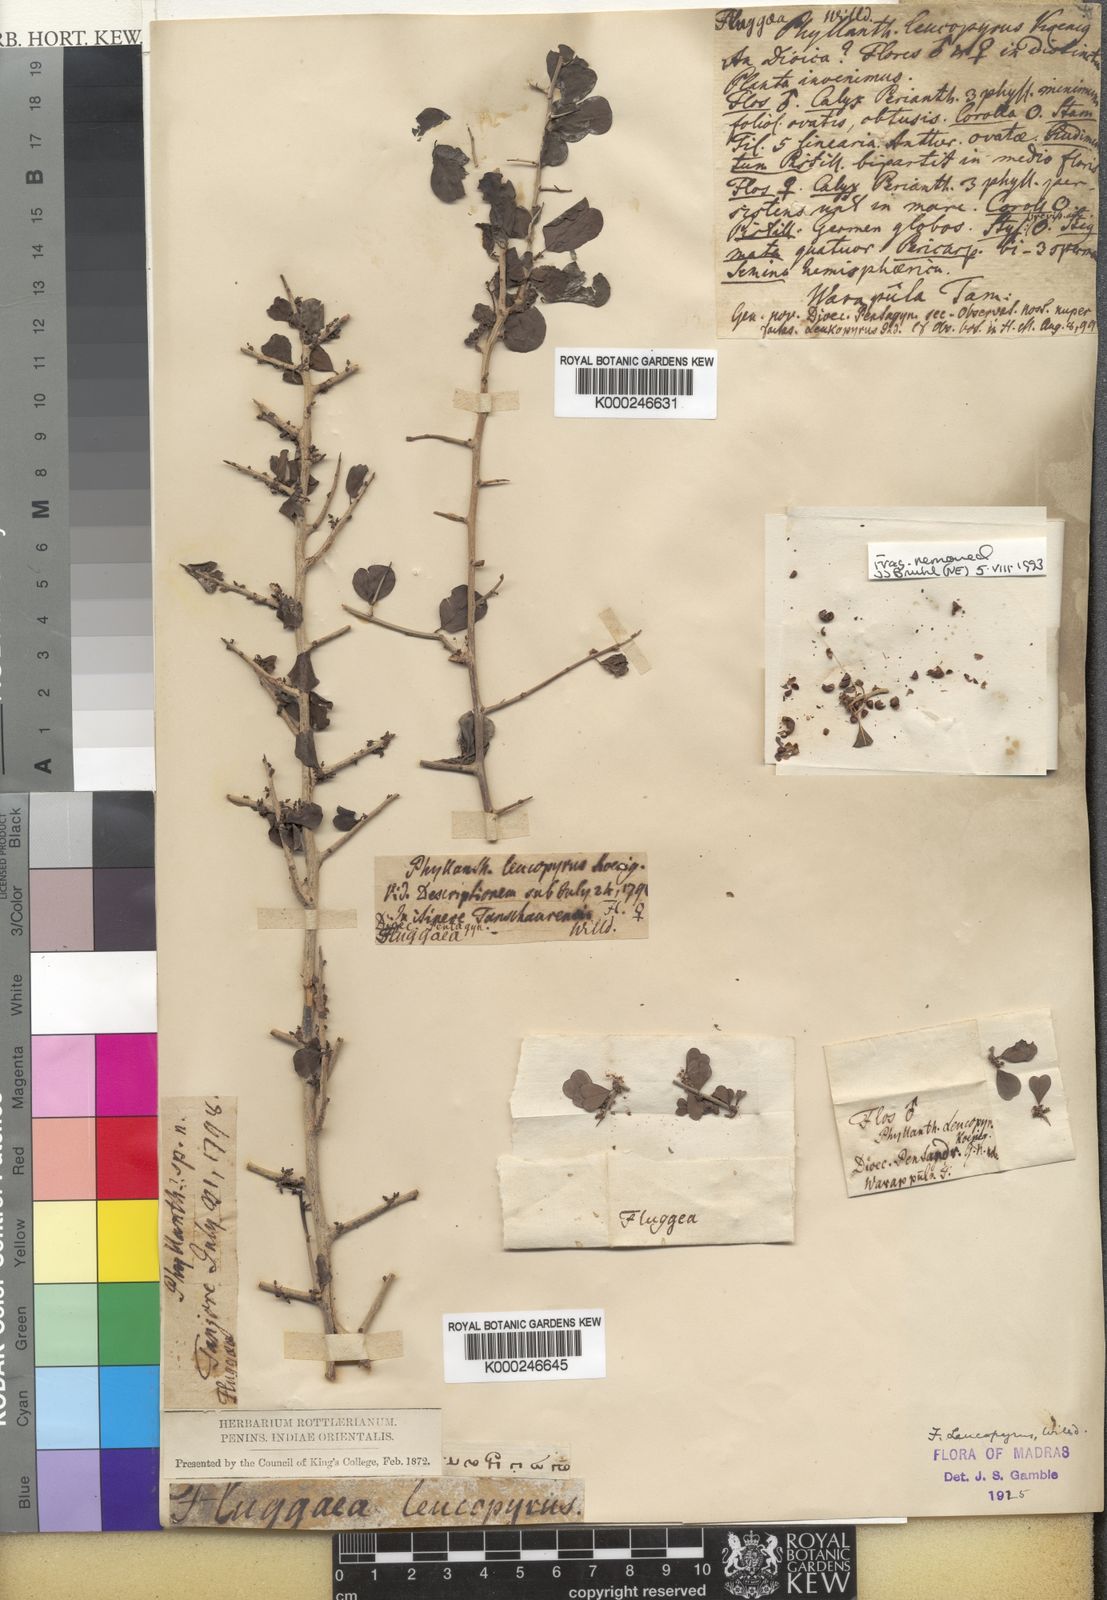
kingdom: Plantae
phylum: Tracheophyta
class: Magnoliopsida
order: Malpighiales
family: Phyllanthaceae
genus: Flueggea
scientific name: Flueggea leucopyrus
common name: Bushweed
